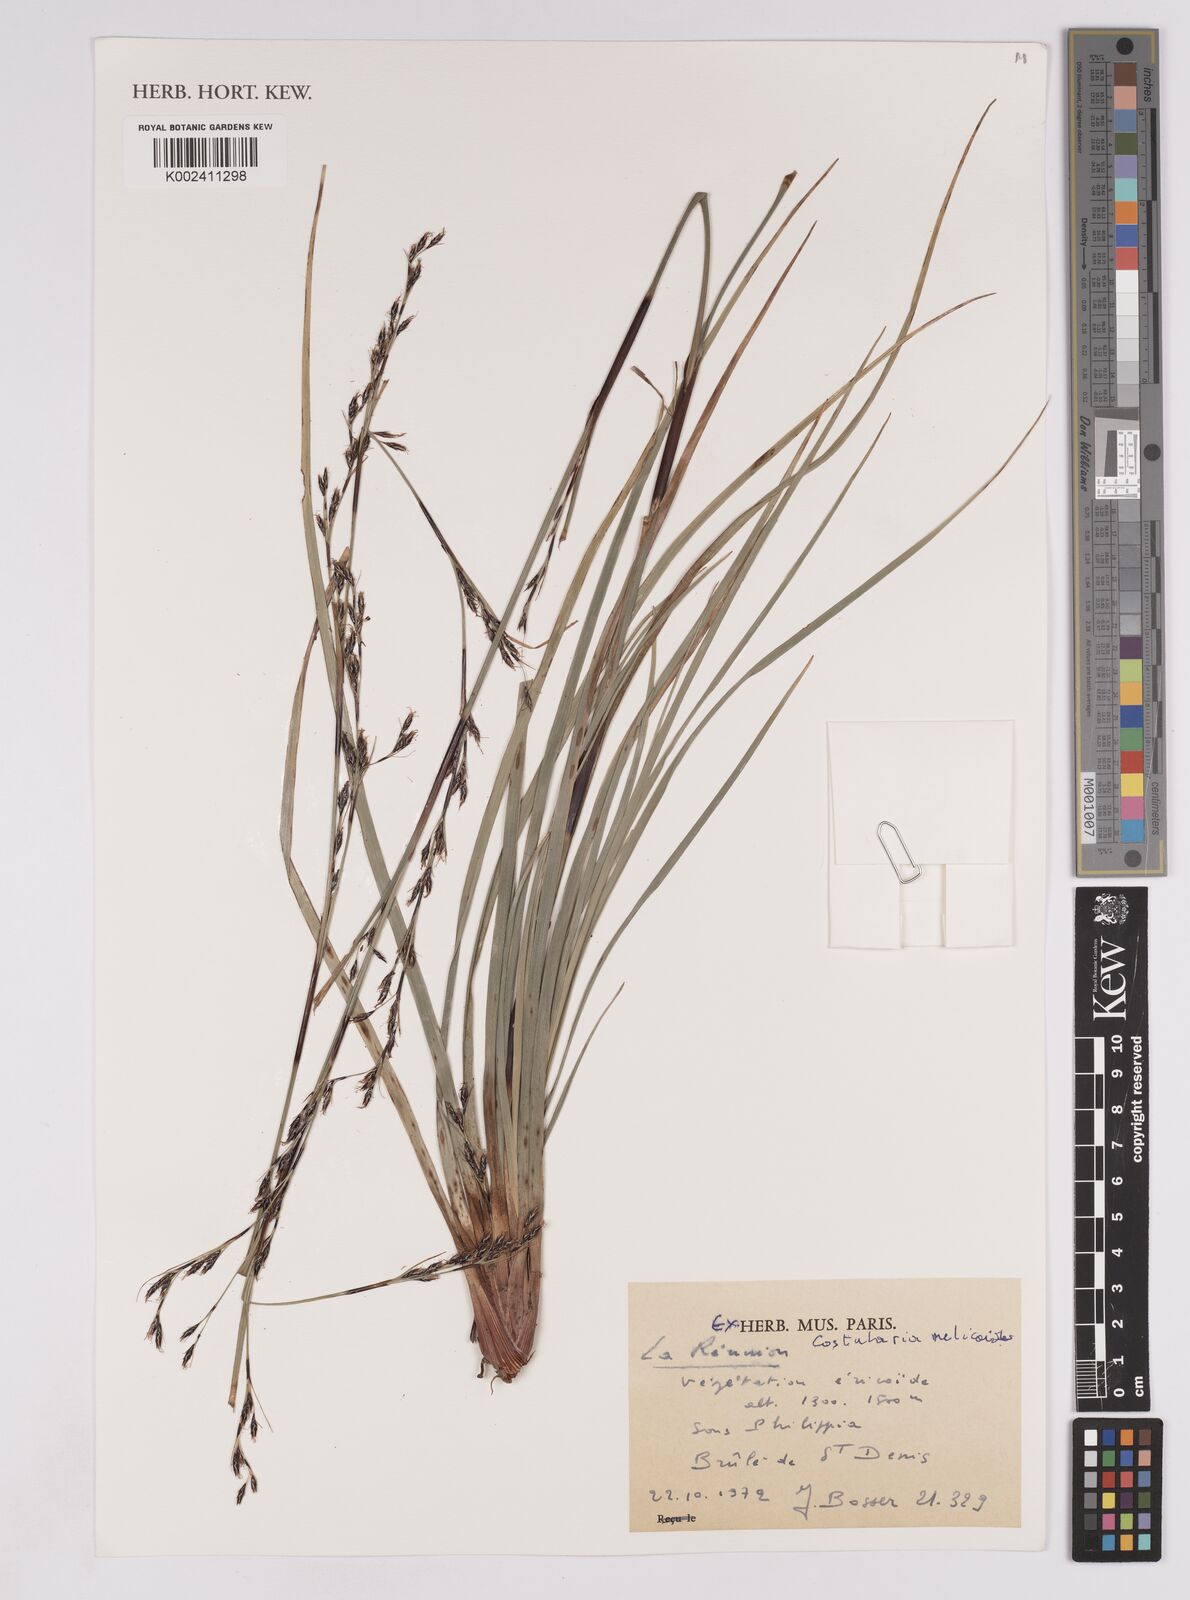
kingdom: Plantae
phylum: Tracheophyta
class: Liliopsida
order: Poales
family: Cyperaceae
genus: Costularia
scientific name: Costularia melicoides
